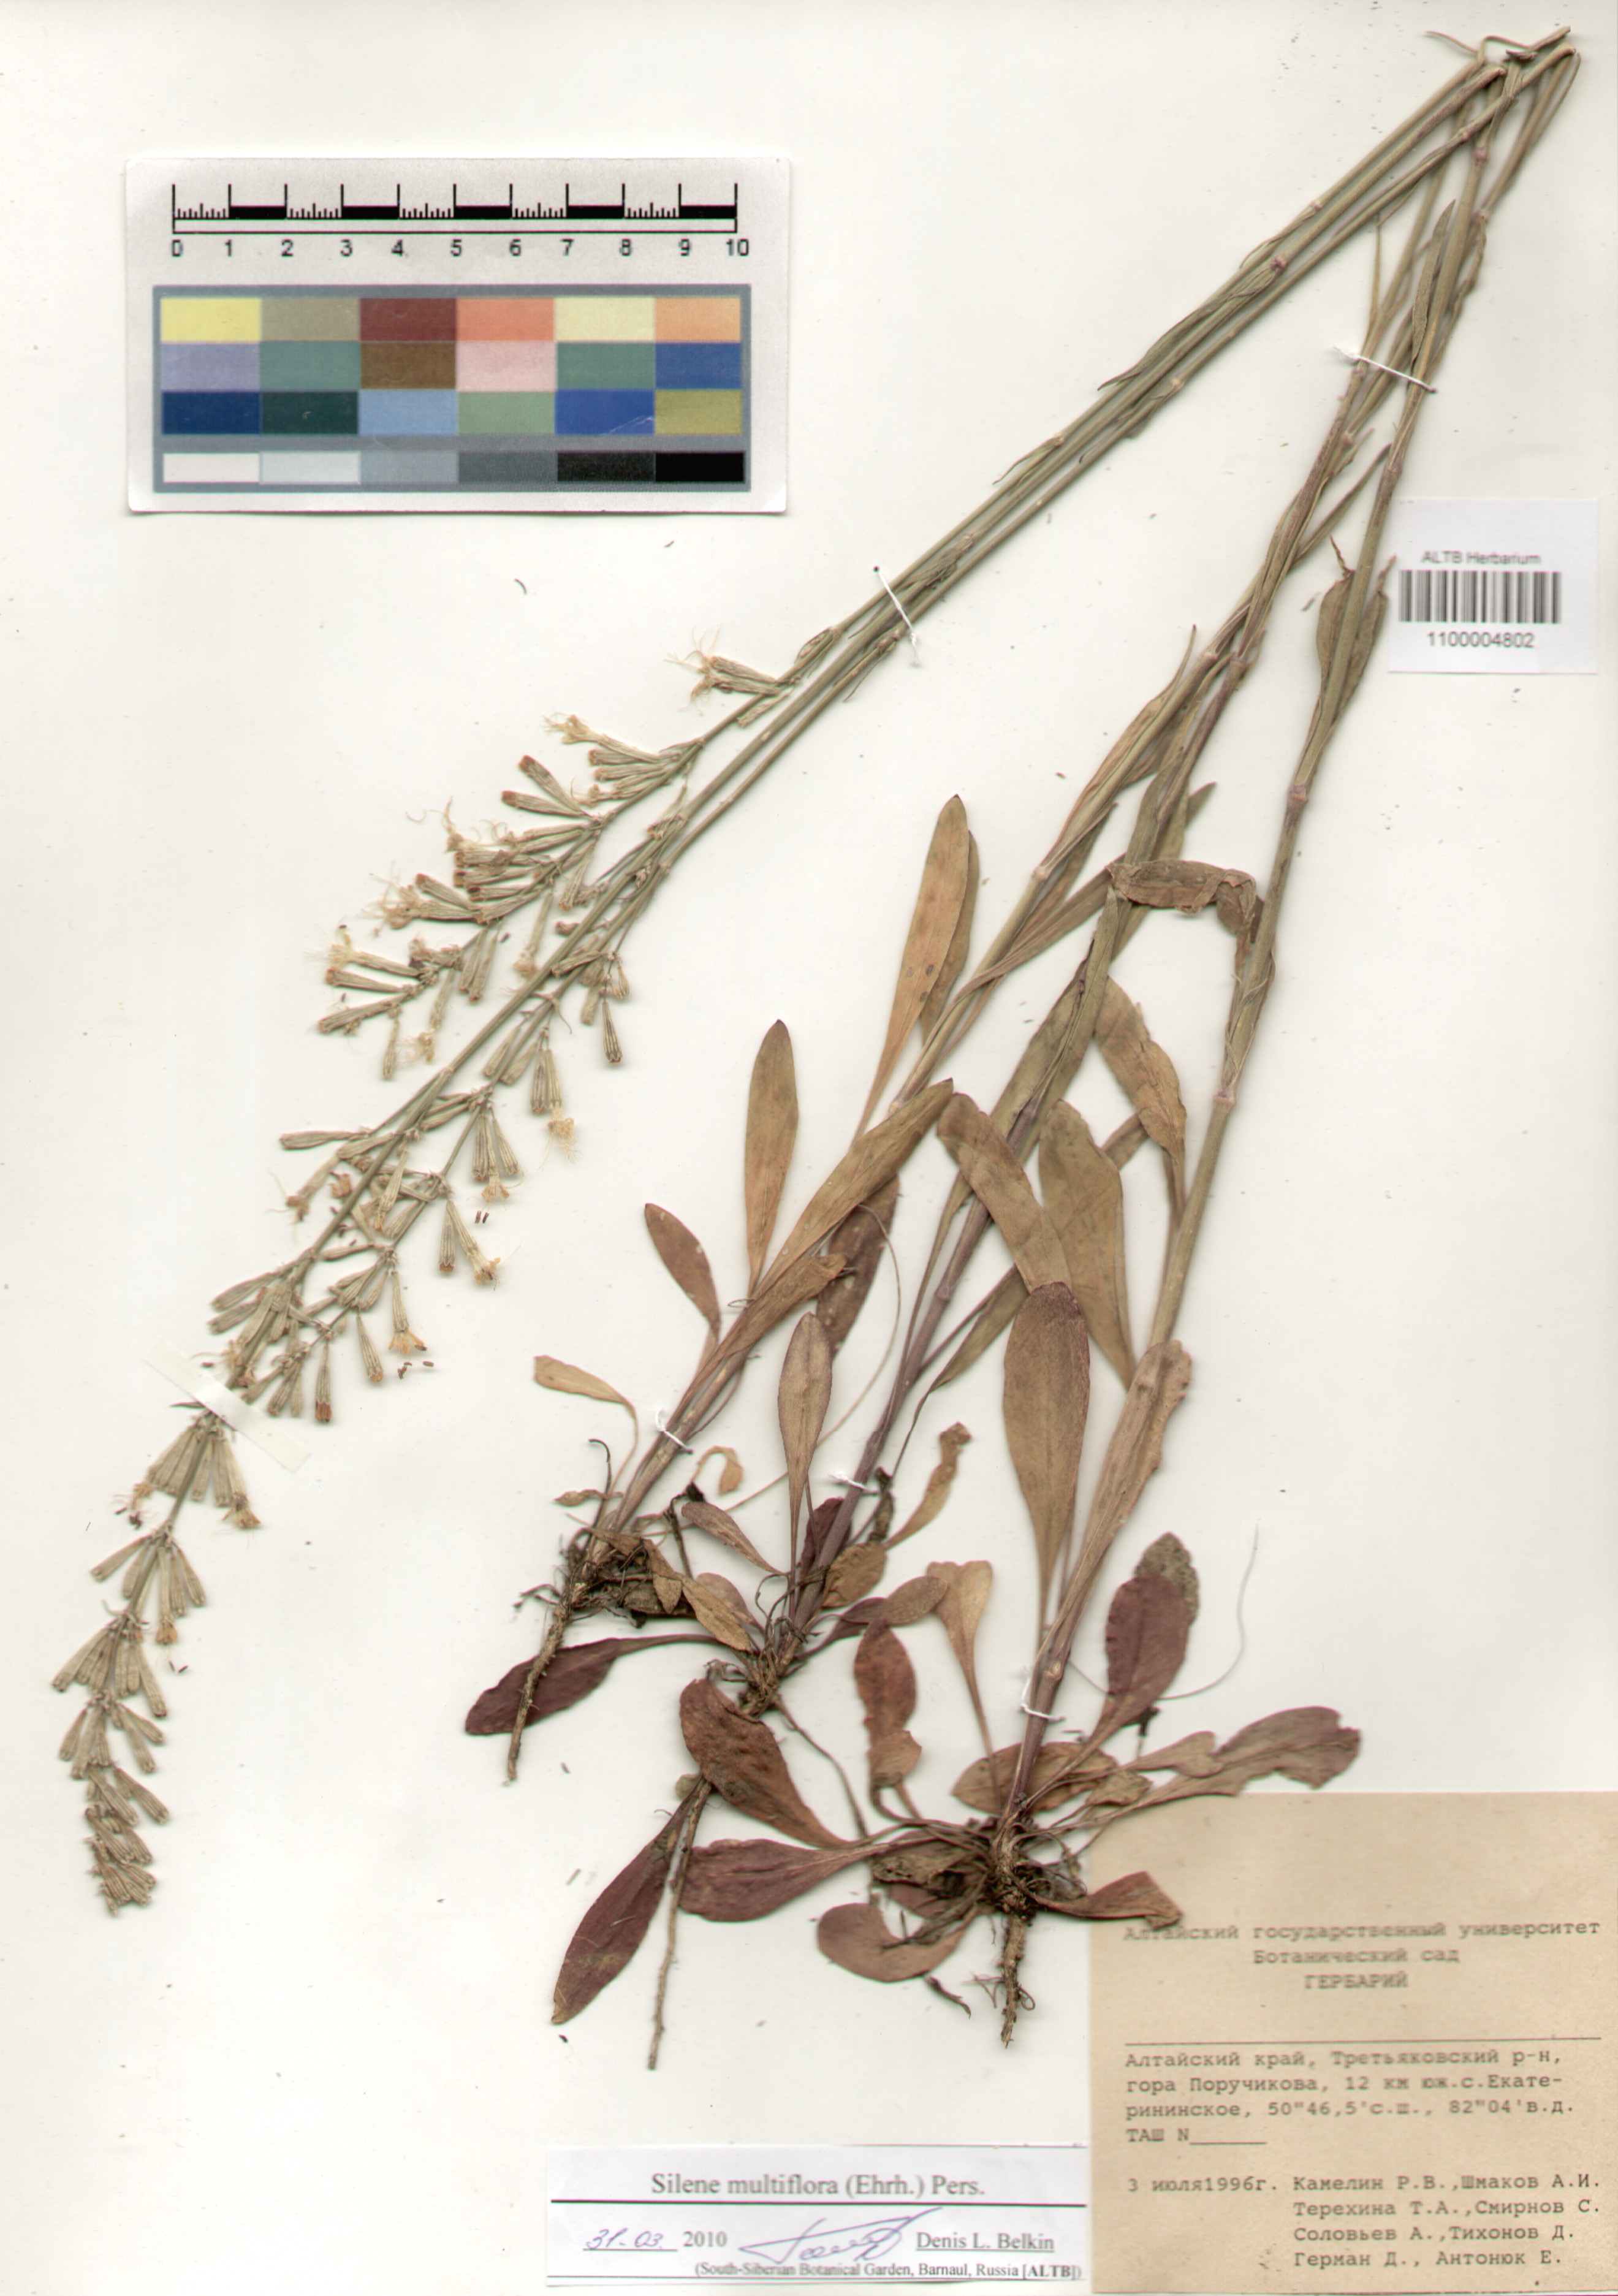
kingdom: Plantae
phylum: Tracheophyta
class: Magnoliopsida
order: Caryophyllales
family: Caryophyllaceae
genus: Silene
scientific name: Silene multiflora
